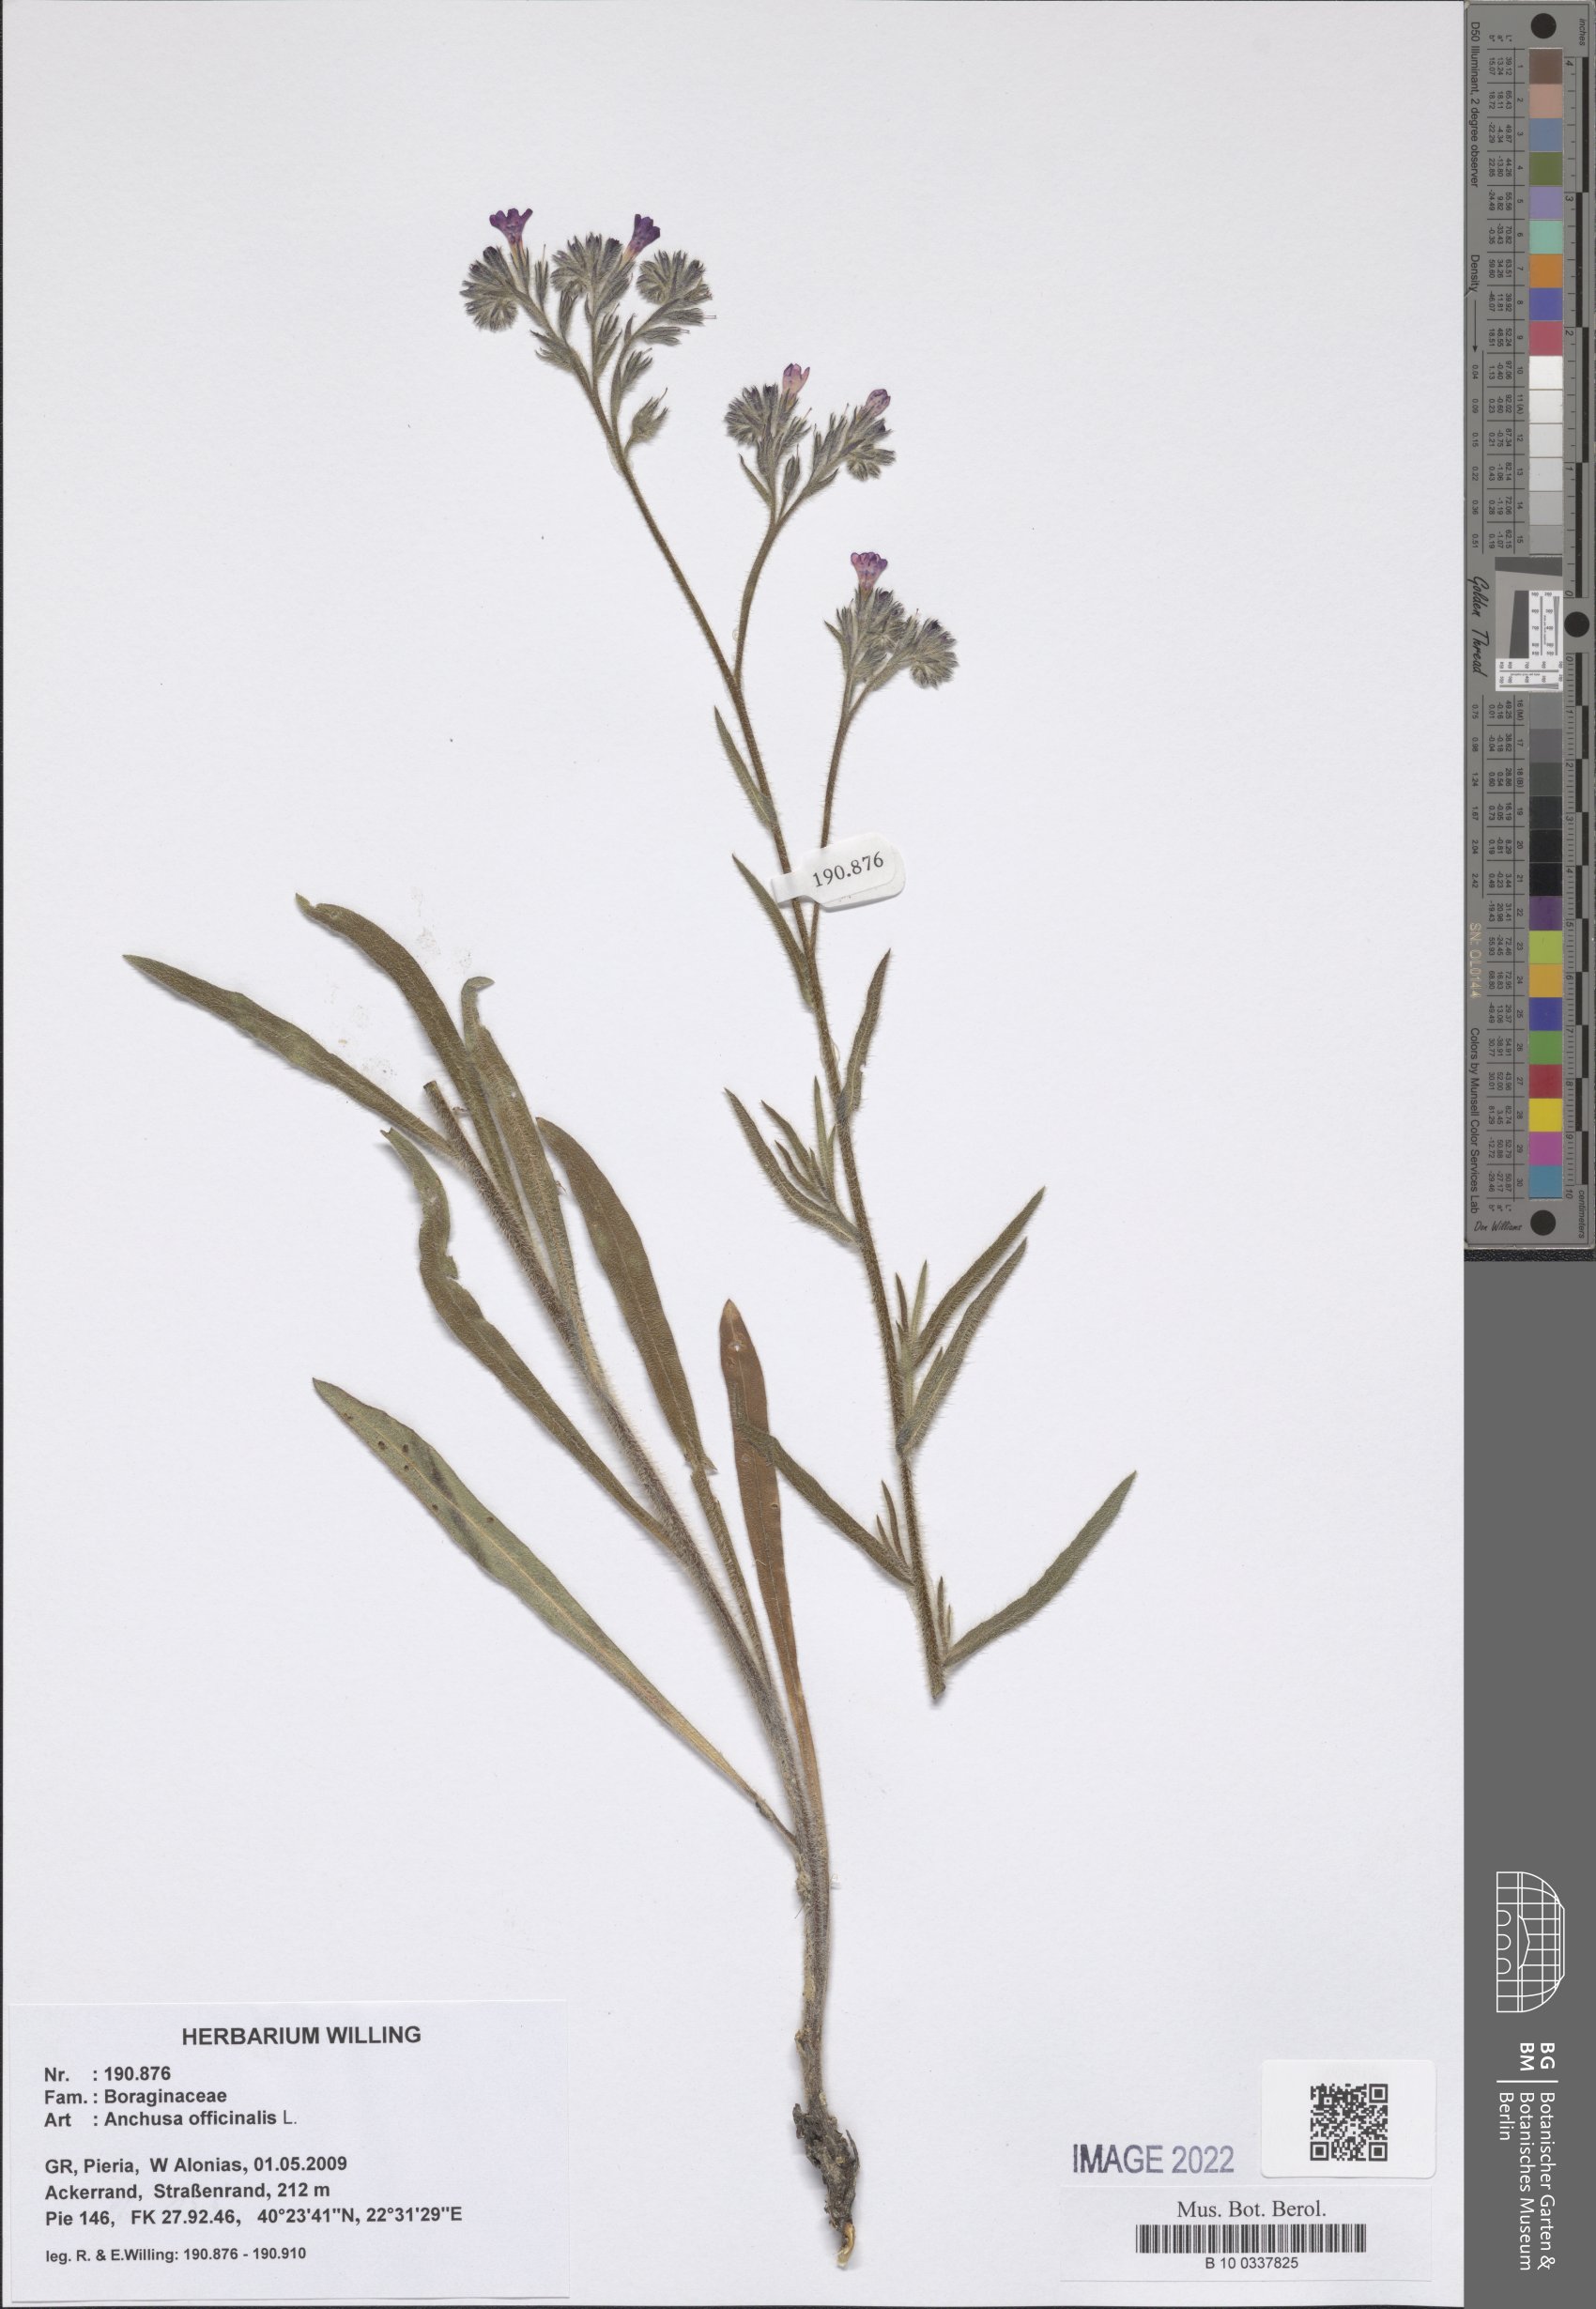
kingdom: Plantae
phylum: Tracheophyta
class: Magnoliopsida
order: Boraginales
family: Boraginaceae
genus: Anchusa
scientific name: Anchusa officinalis
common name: Alkanet
